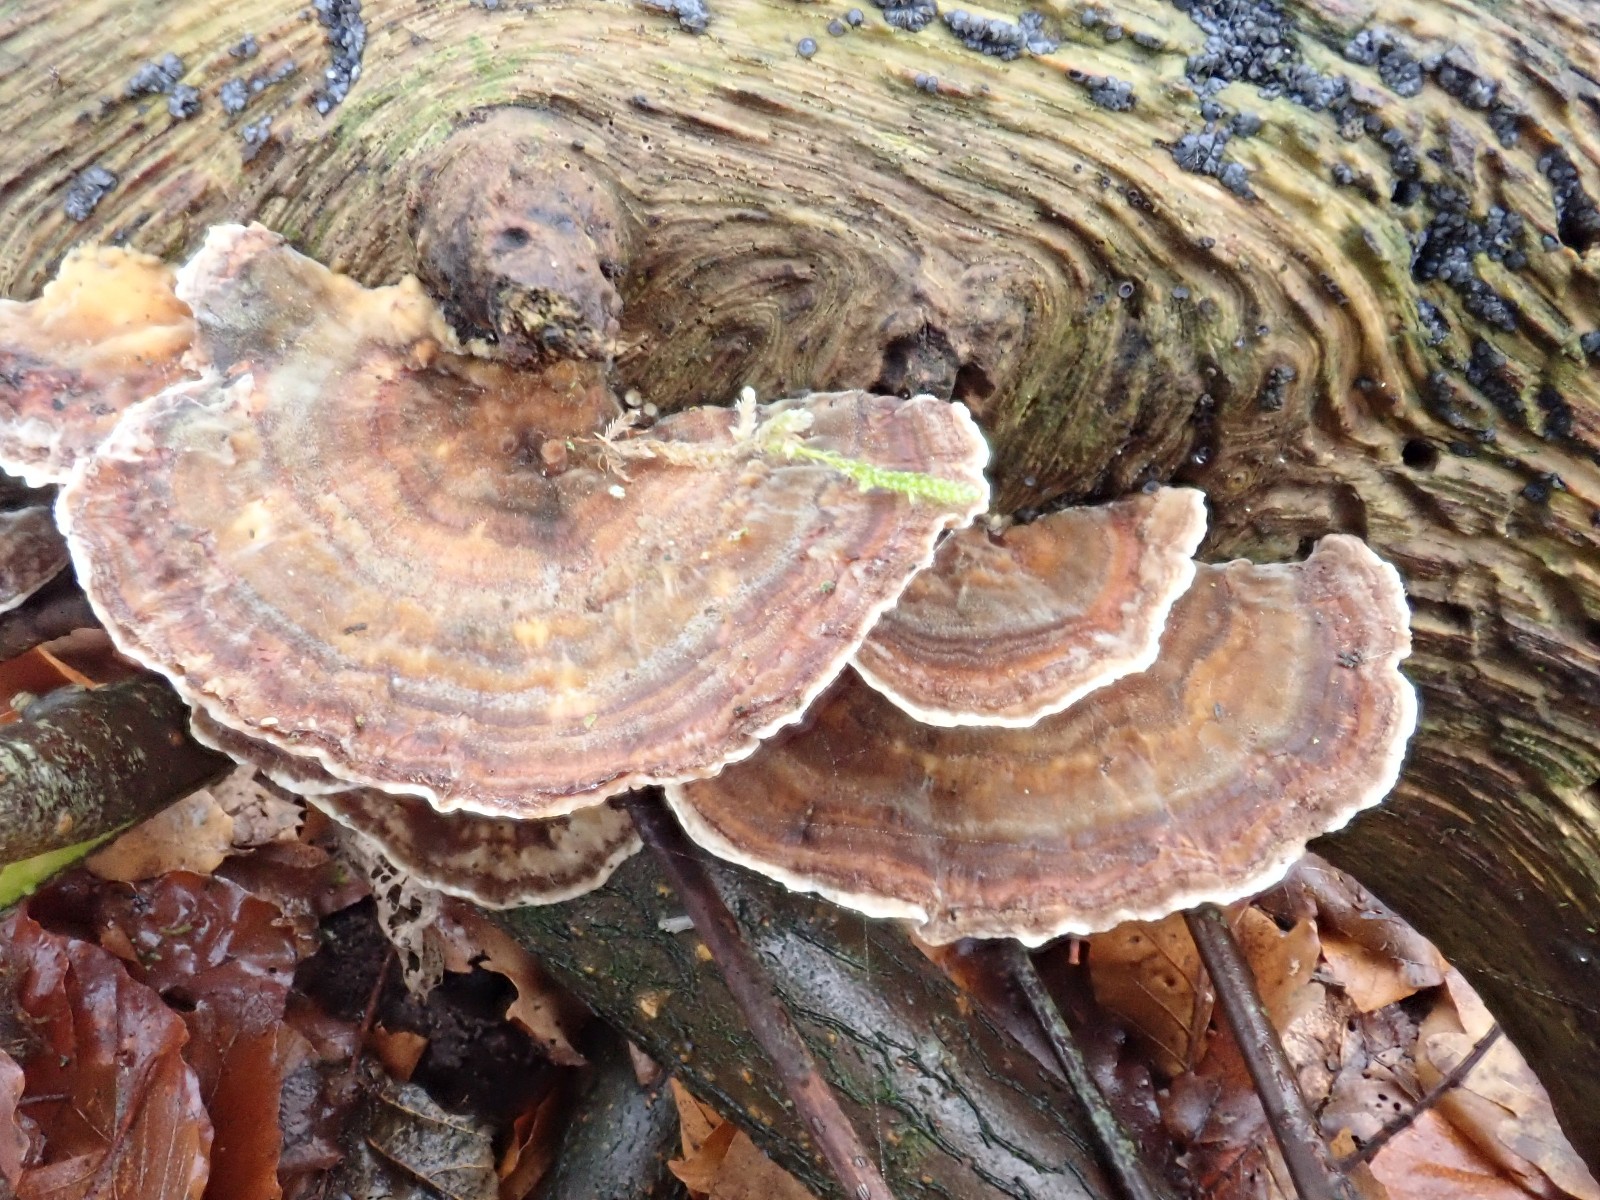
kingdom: Fungi
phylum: Basidiomycota
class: Agaricomycetes
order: Polyporales
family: Polyporaceae
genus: Trametes
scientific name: Trametes versicolor
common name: broget læderporesvamp
